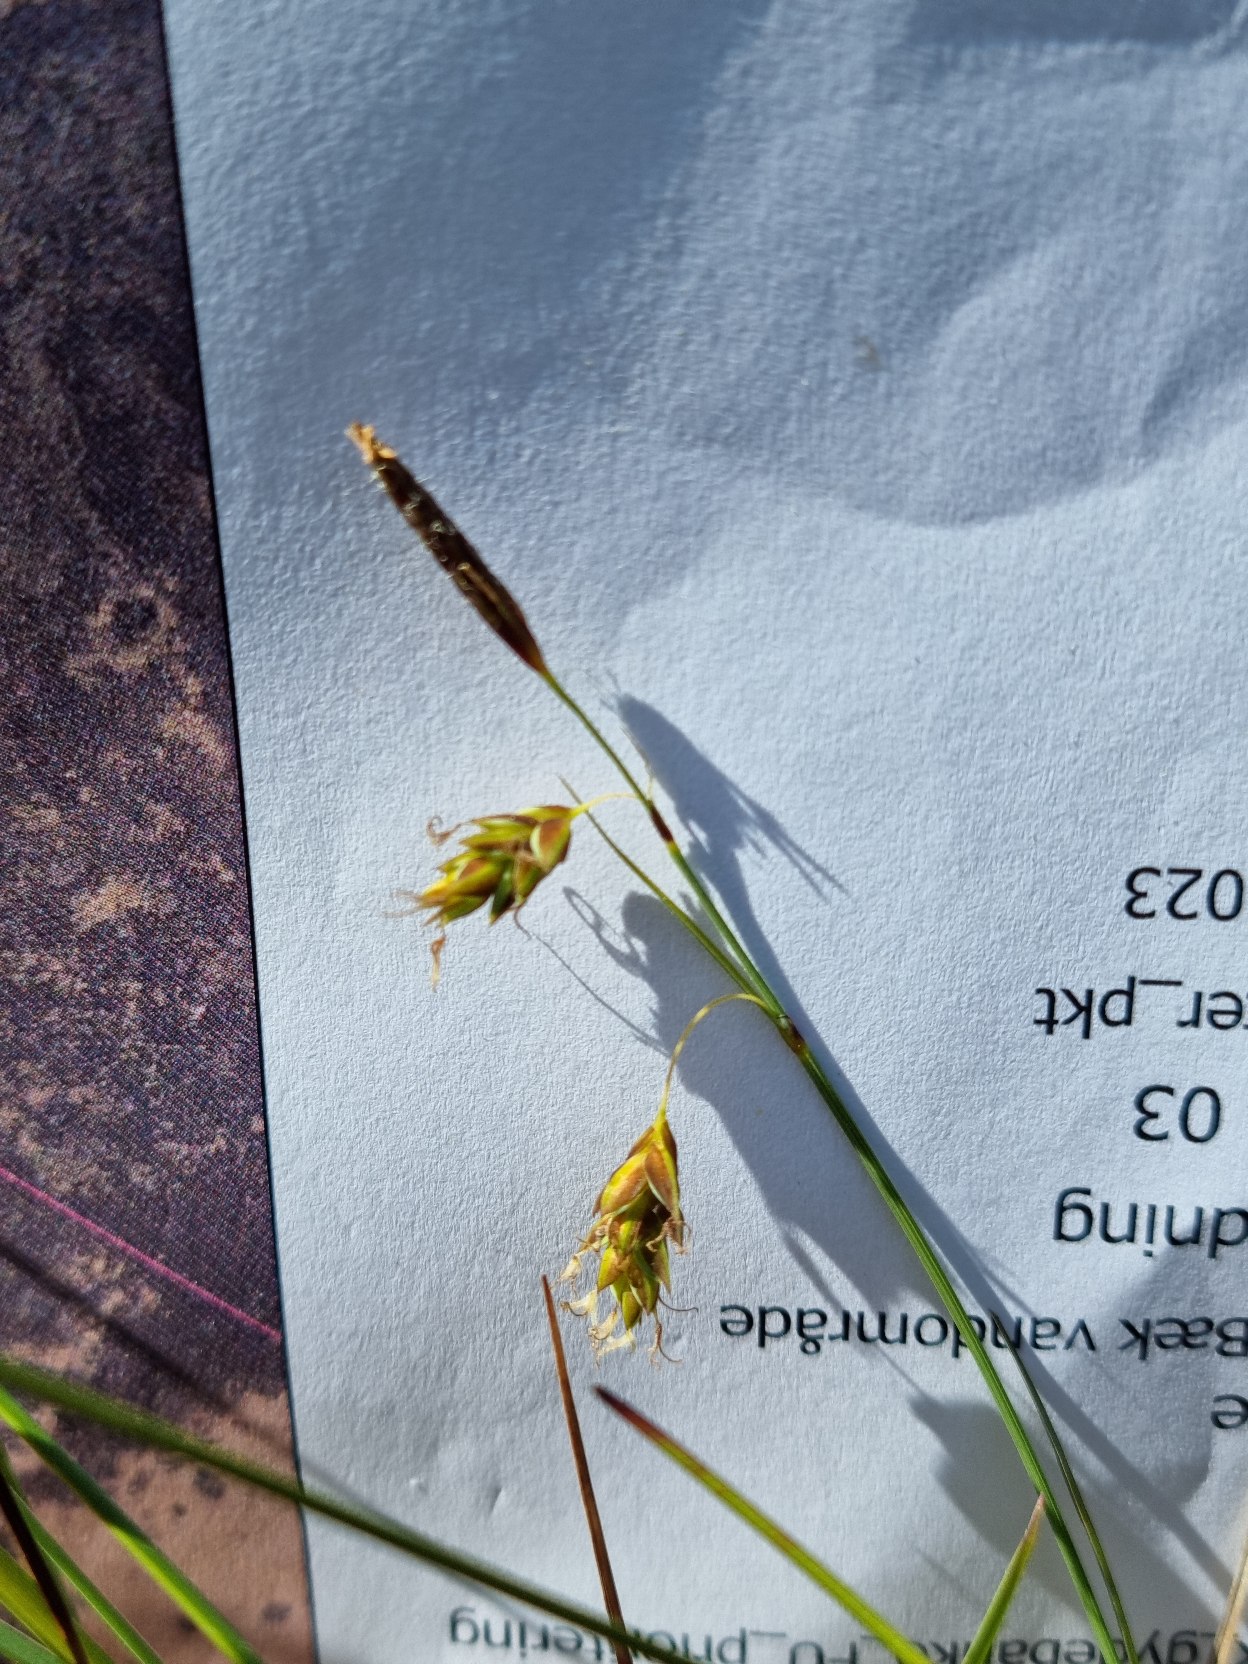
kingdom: Plantae
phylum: Tracheophyta
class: Liliopsida
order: Poales
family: Cyperaceae
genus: Carex
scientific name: Carex limosa
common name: Dynd-star
